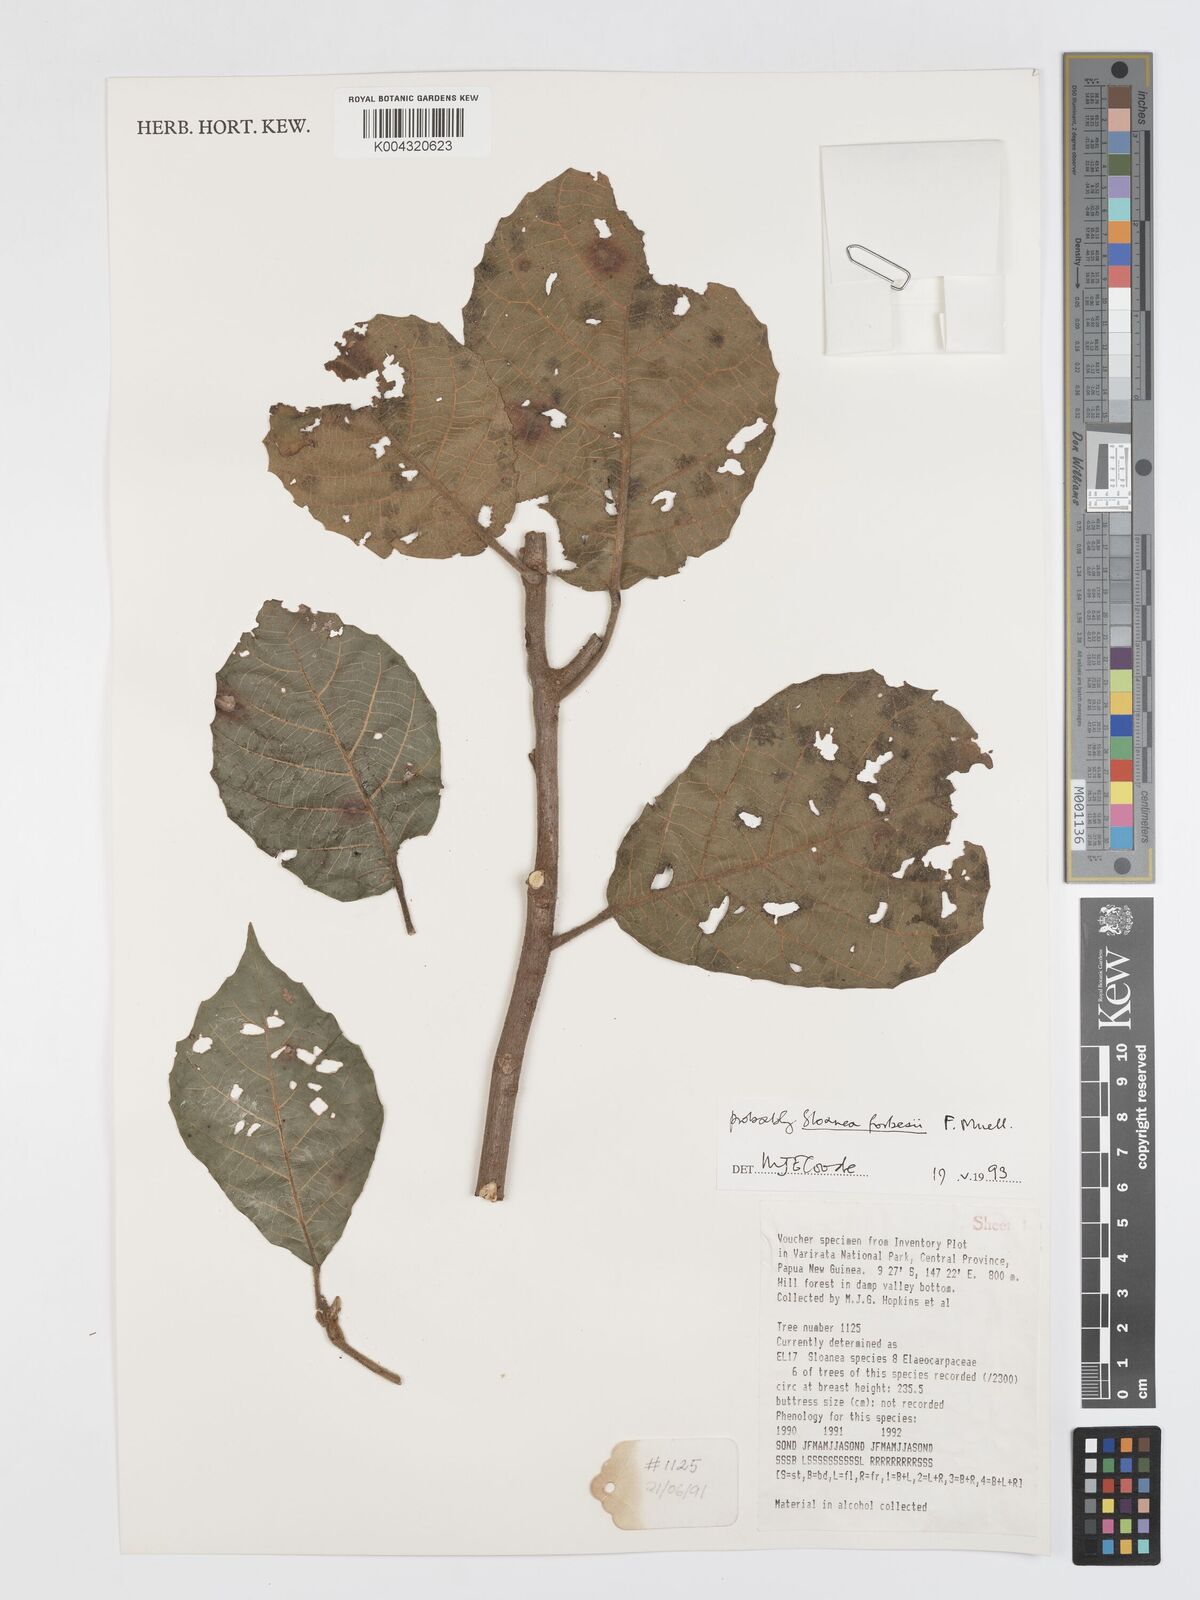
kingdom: Plantae
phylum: Tracheophyta
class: Magnoliopsida
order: Oxalidales
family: Elaeocarpaceae
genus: Sloanea
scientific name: Sloanea forbesii
